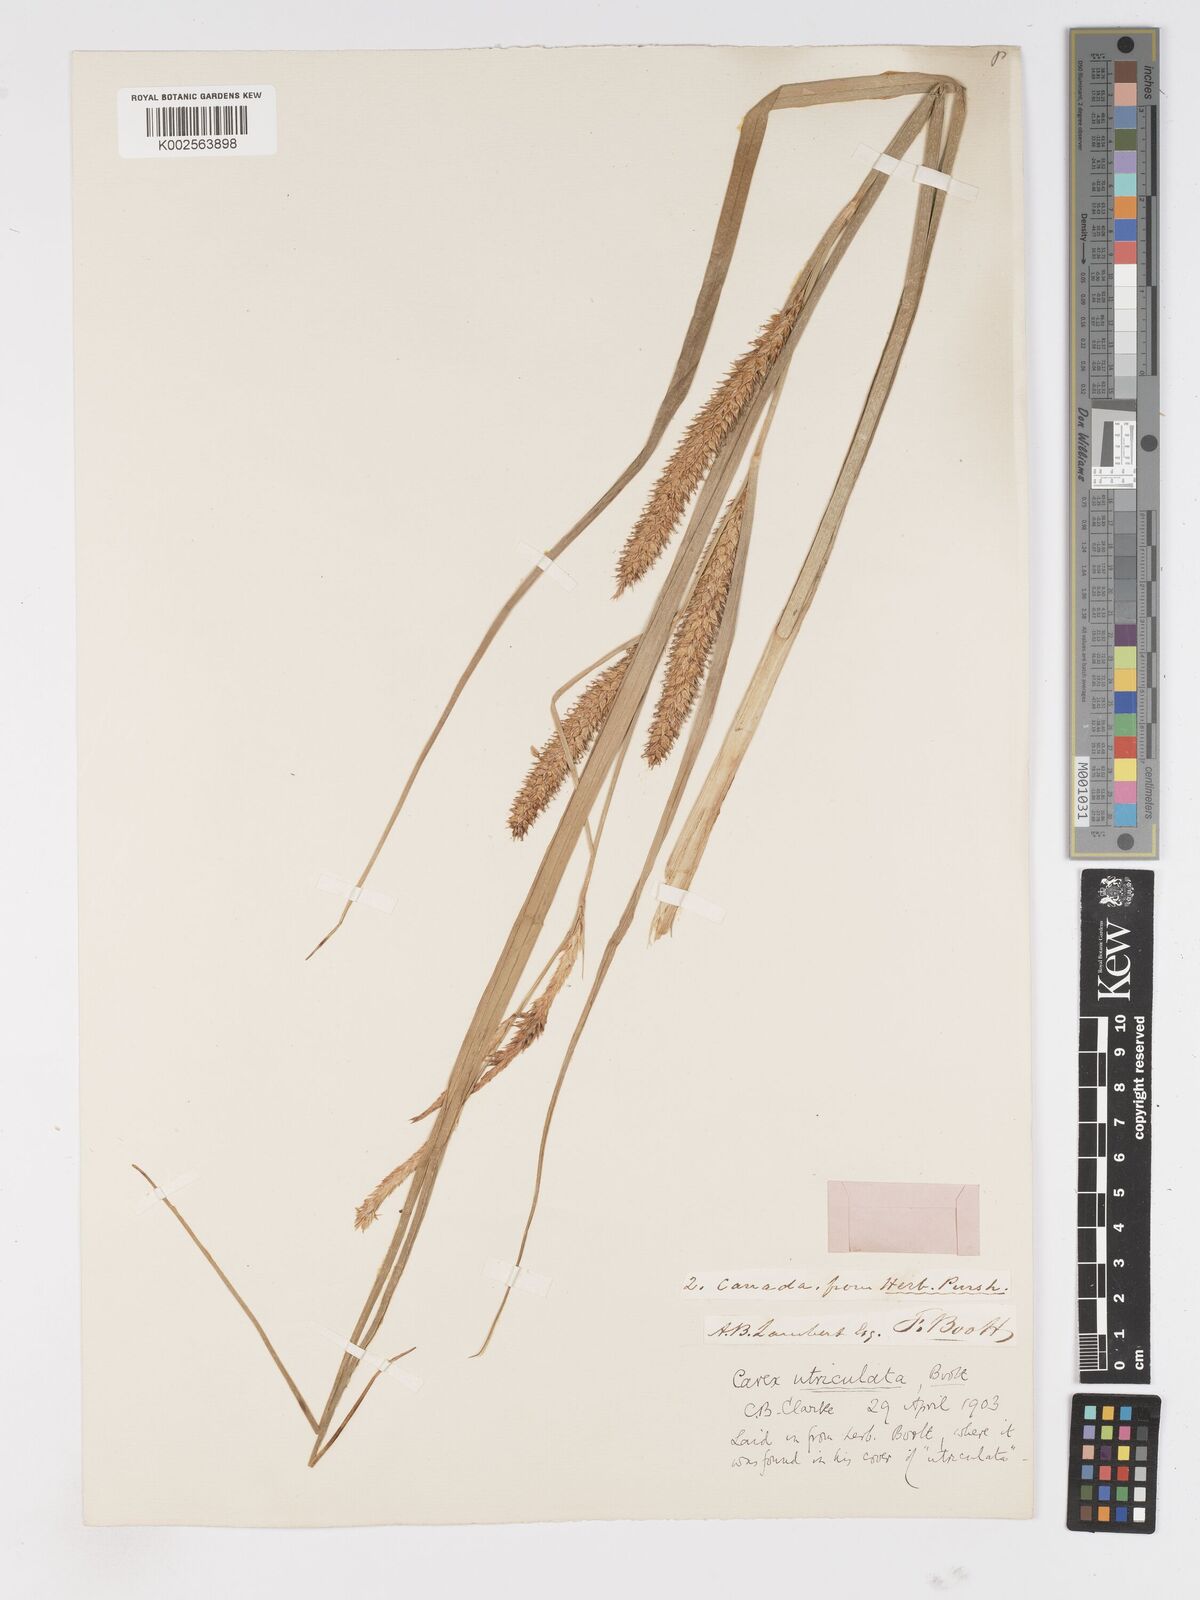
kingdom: Plantae
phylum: Tracheophyta
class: Liliopsida
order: Poales
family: Cyperaceae
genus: Carex
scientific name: Carex rostrata
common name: Bottle sedge
